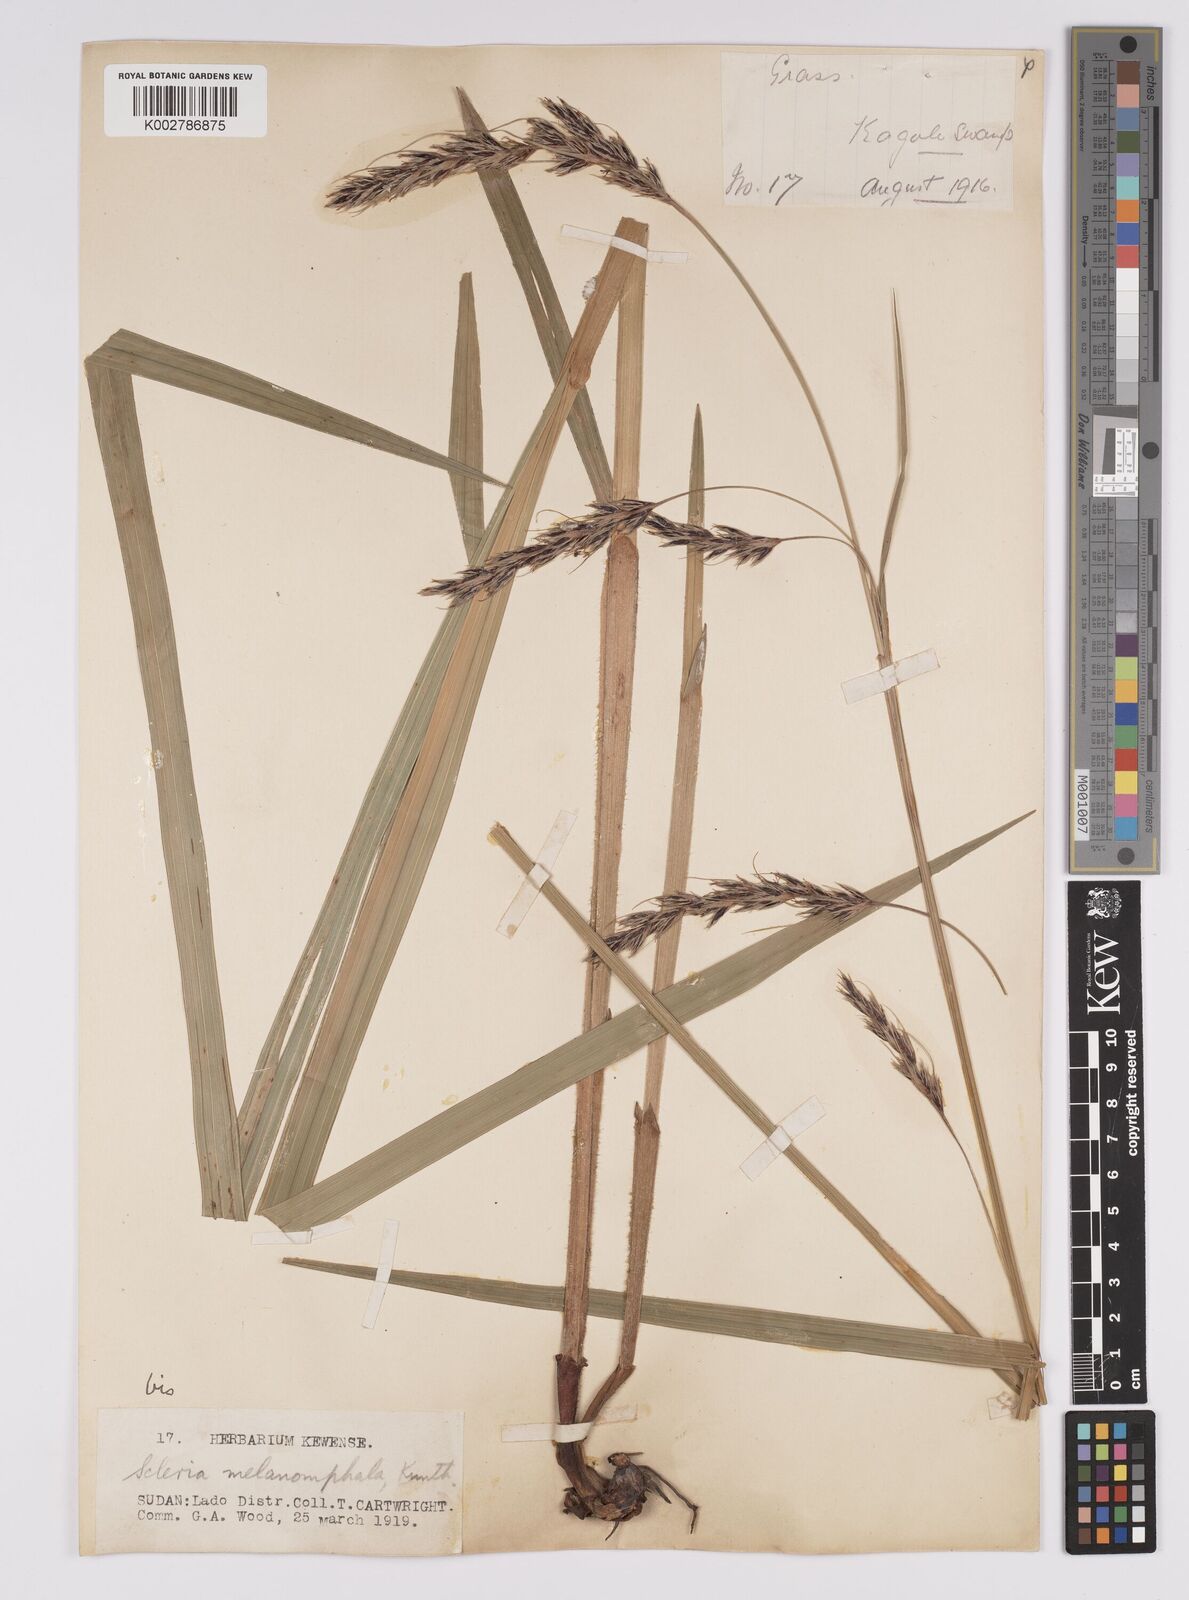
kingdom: Plantae
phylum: Tracheophyta
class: Liliopsida
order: Poales
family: Cyperaceae
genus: Scleria
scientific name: Scleria melanomphala
